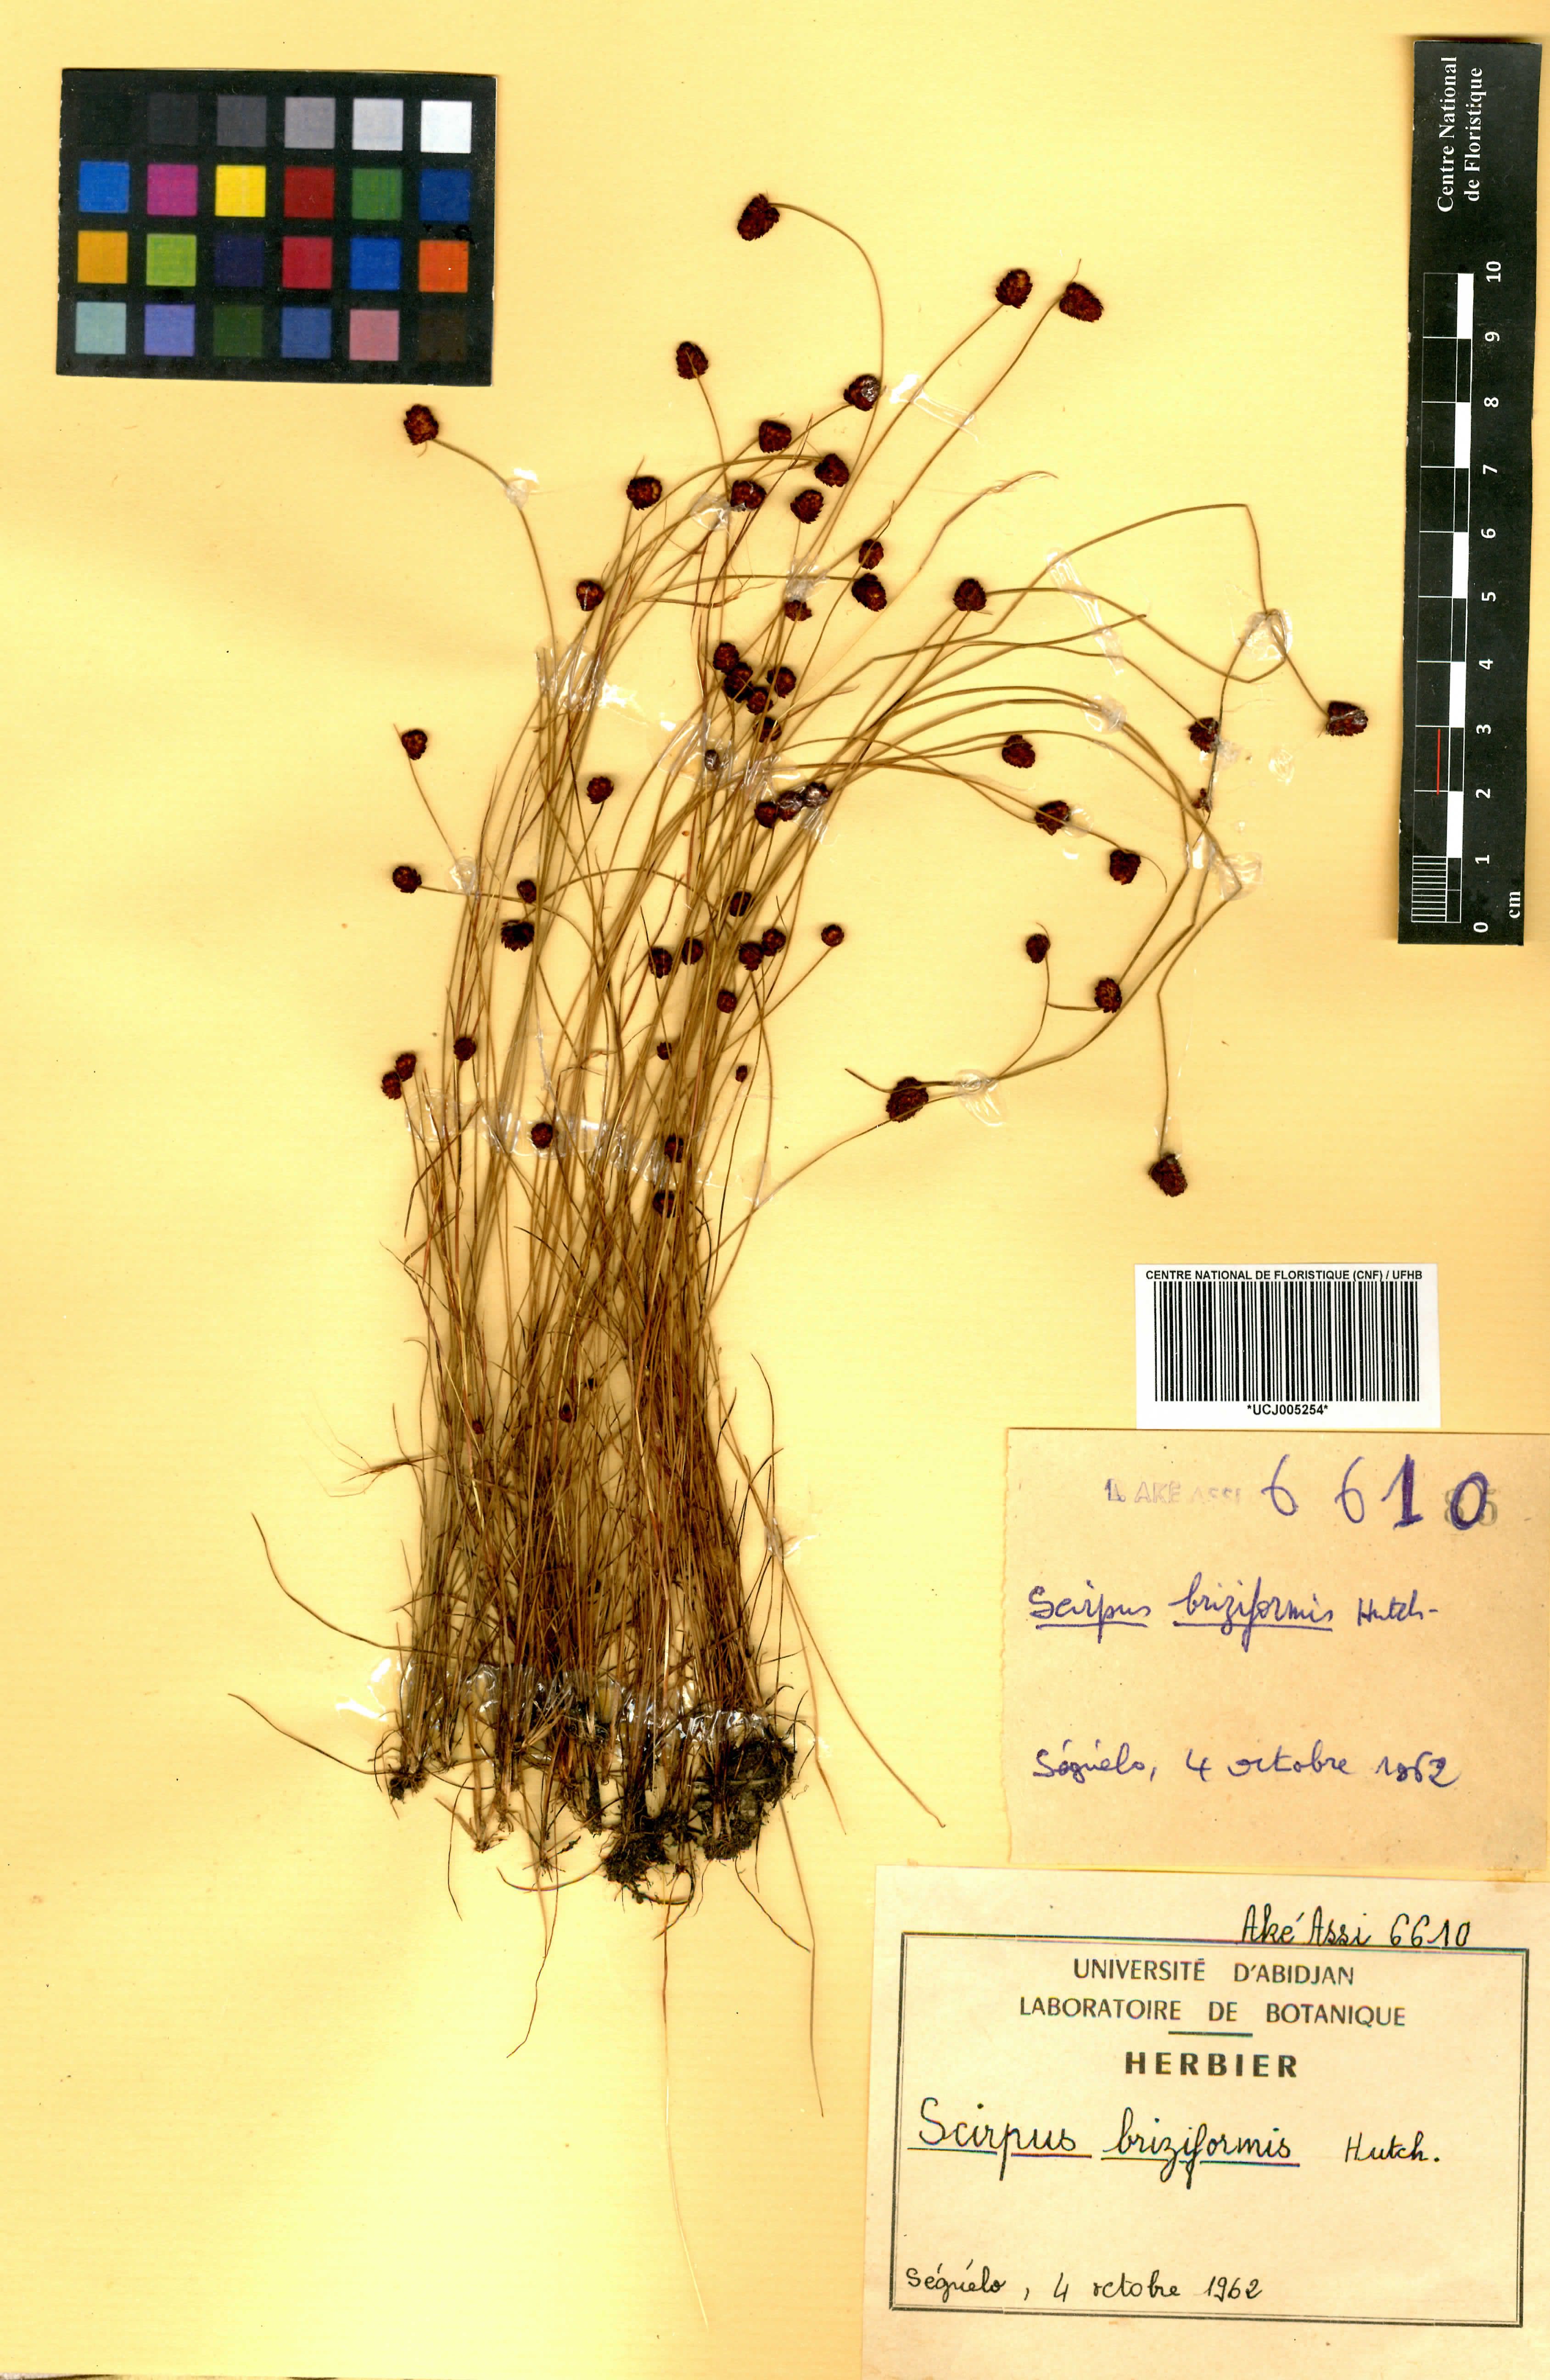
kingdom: Plantae
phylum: Tracheophyta
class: Liliopsida
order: Poales
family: Cyperaceae
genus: Bulbostylis
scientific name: Bulbostylis briziformis
